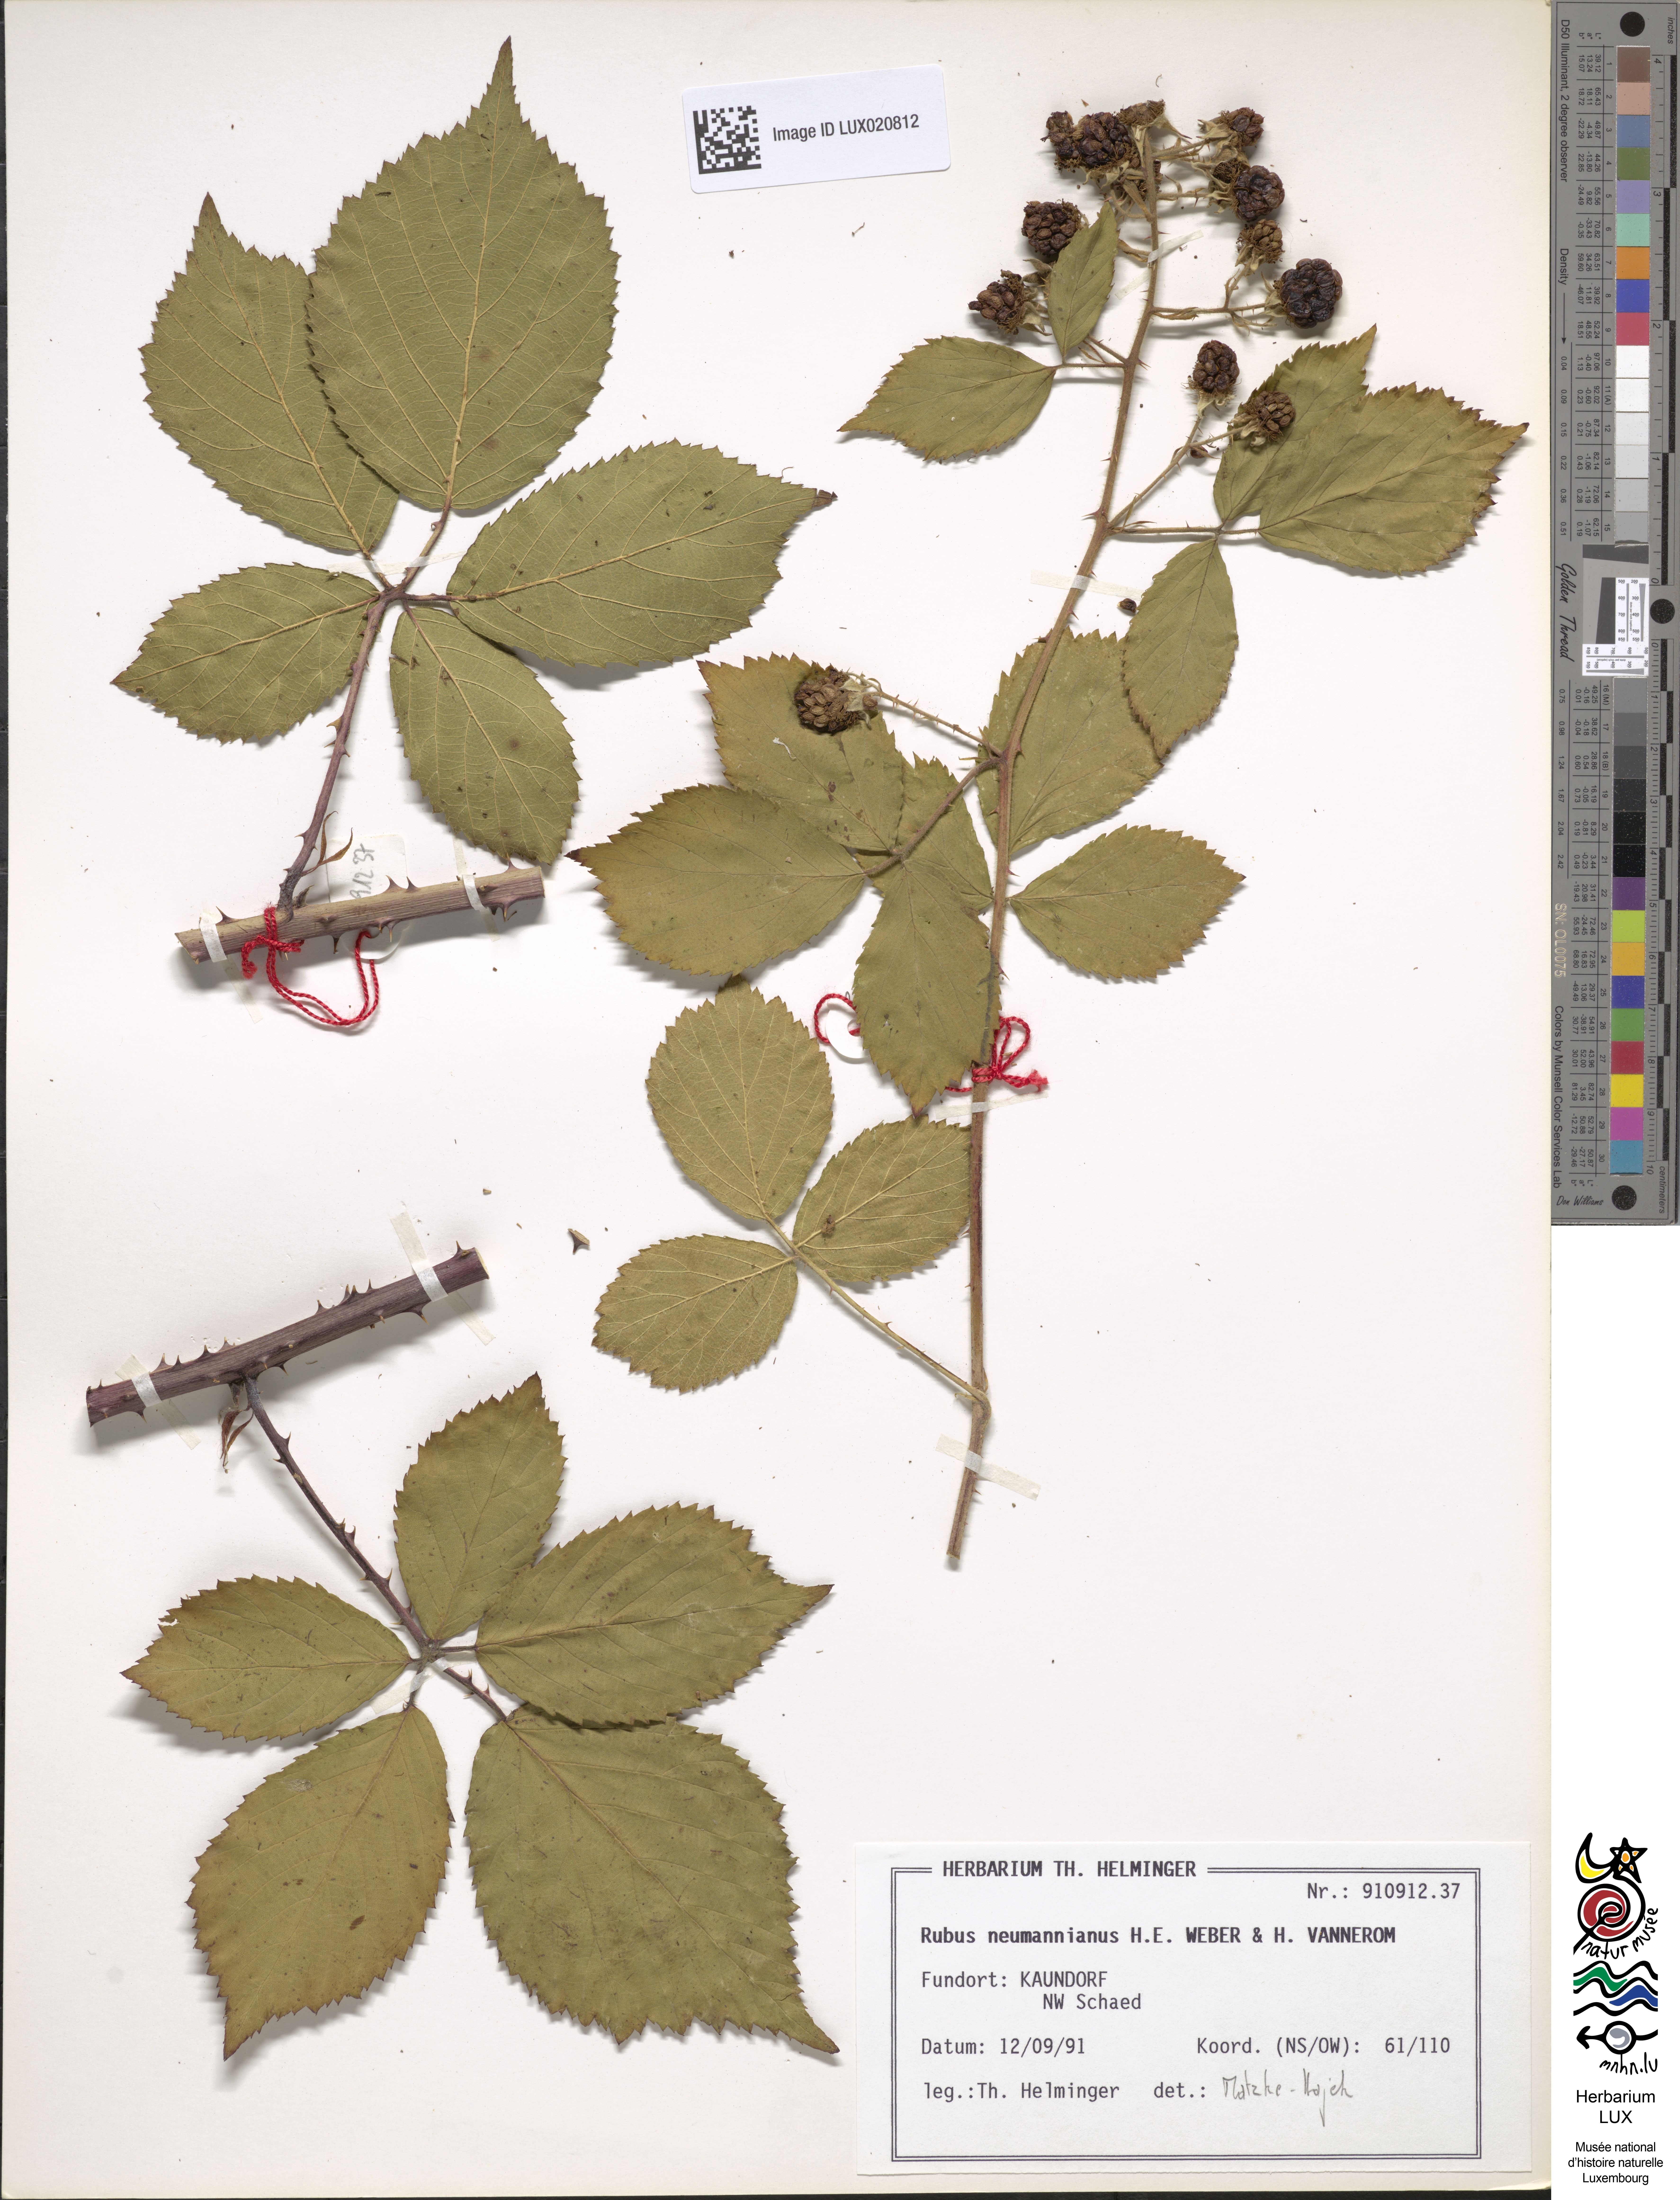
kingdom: Plantae
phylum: Tracheophyta
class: Magnoliopsida
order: Rosales
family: Rosaceae
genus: Rubus
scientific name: Rubus favonii
